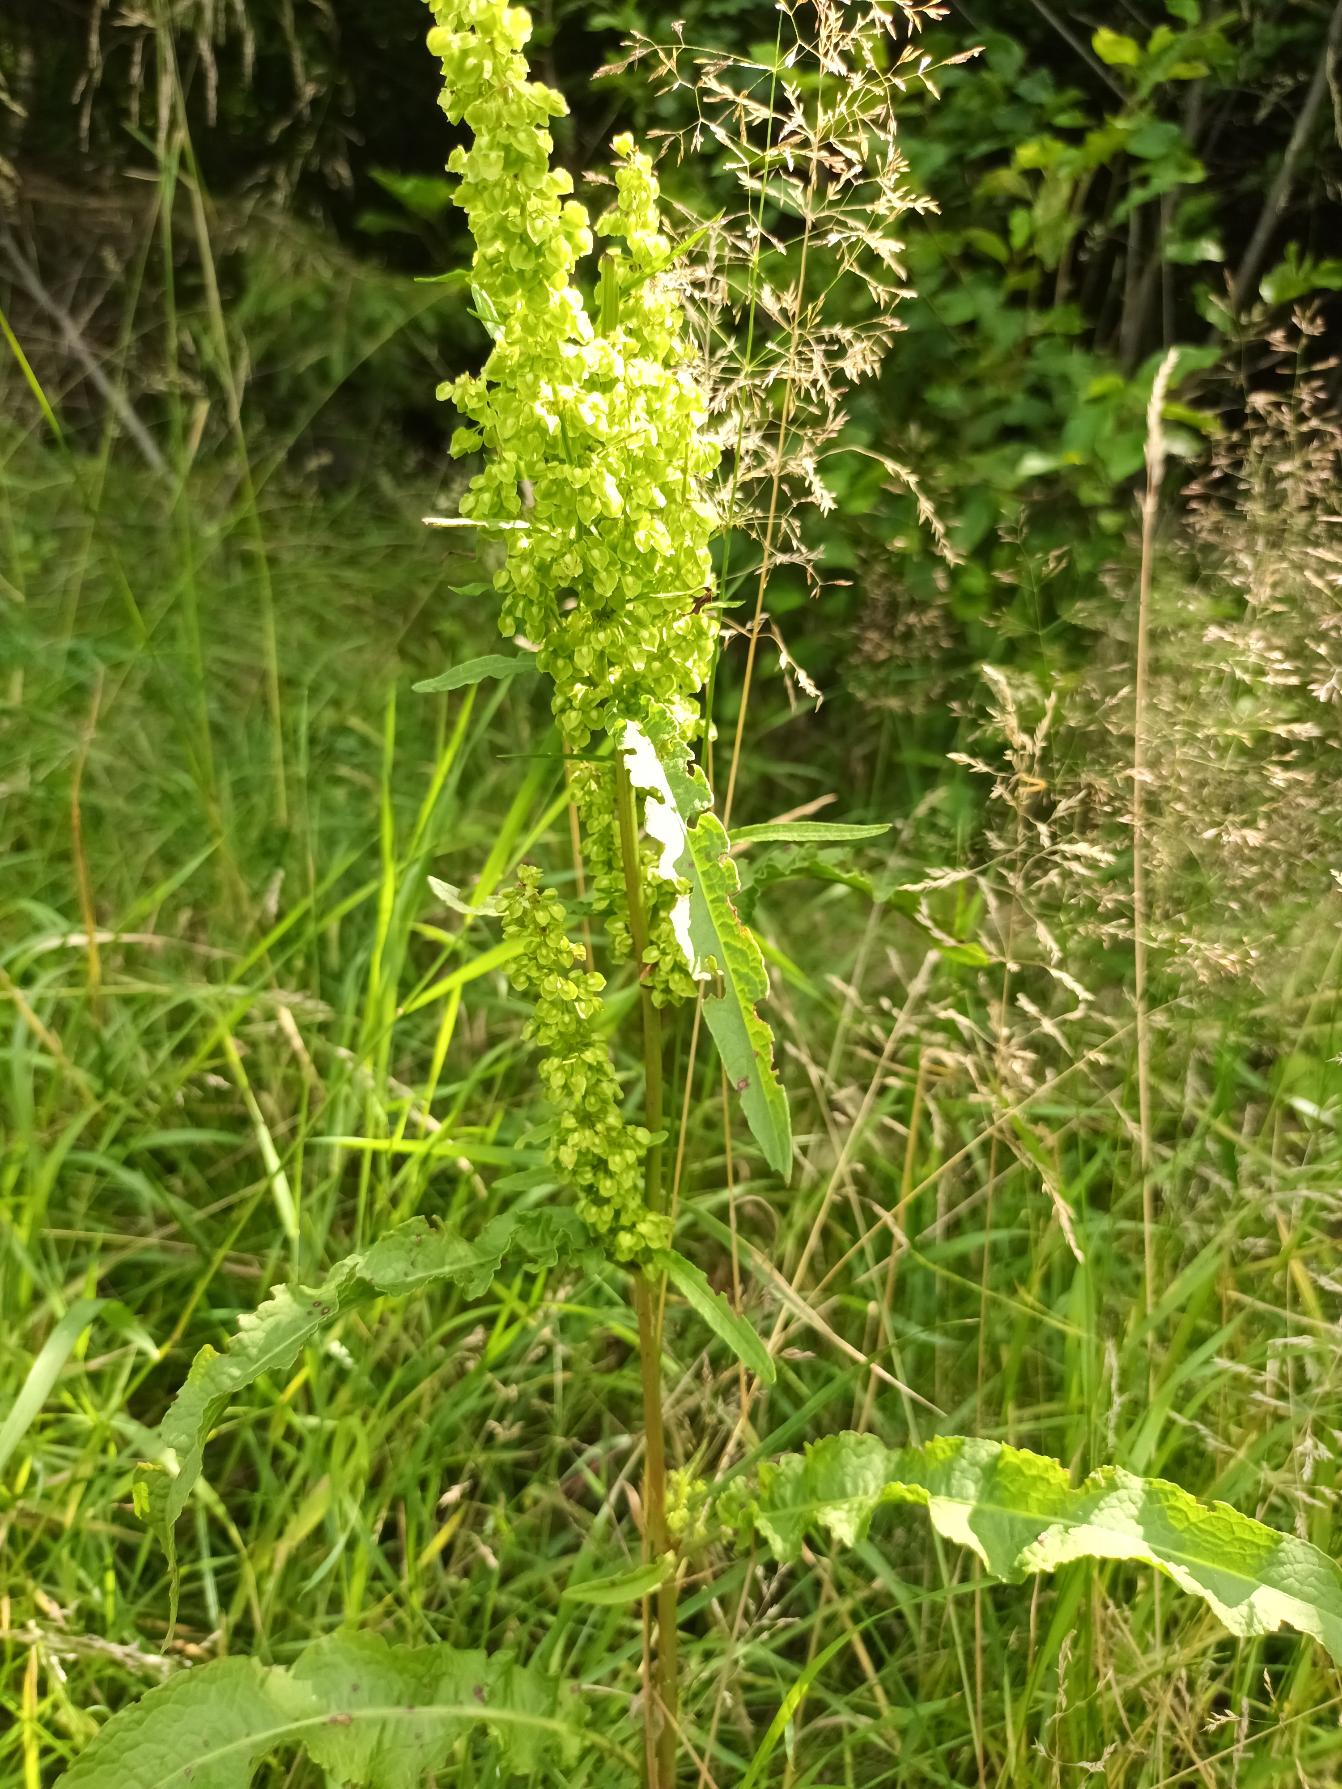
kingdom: Plantae
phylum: Tracheophyta
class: Magnoliopsida
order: Caryophyllales
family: Polygonaceae
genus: Rumex
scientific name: Rumex crispus
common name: Kruset skræppe
